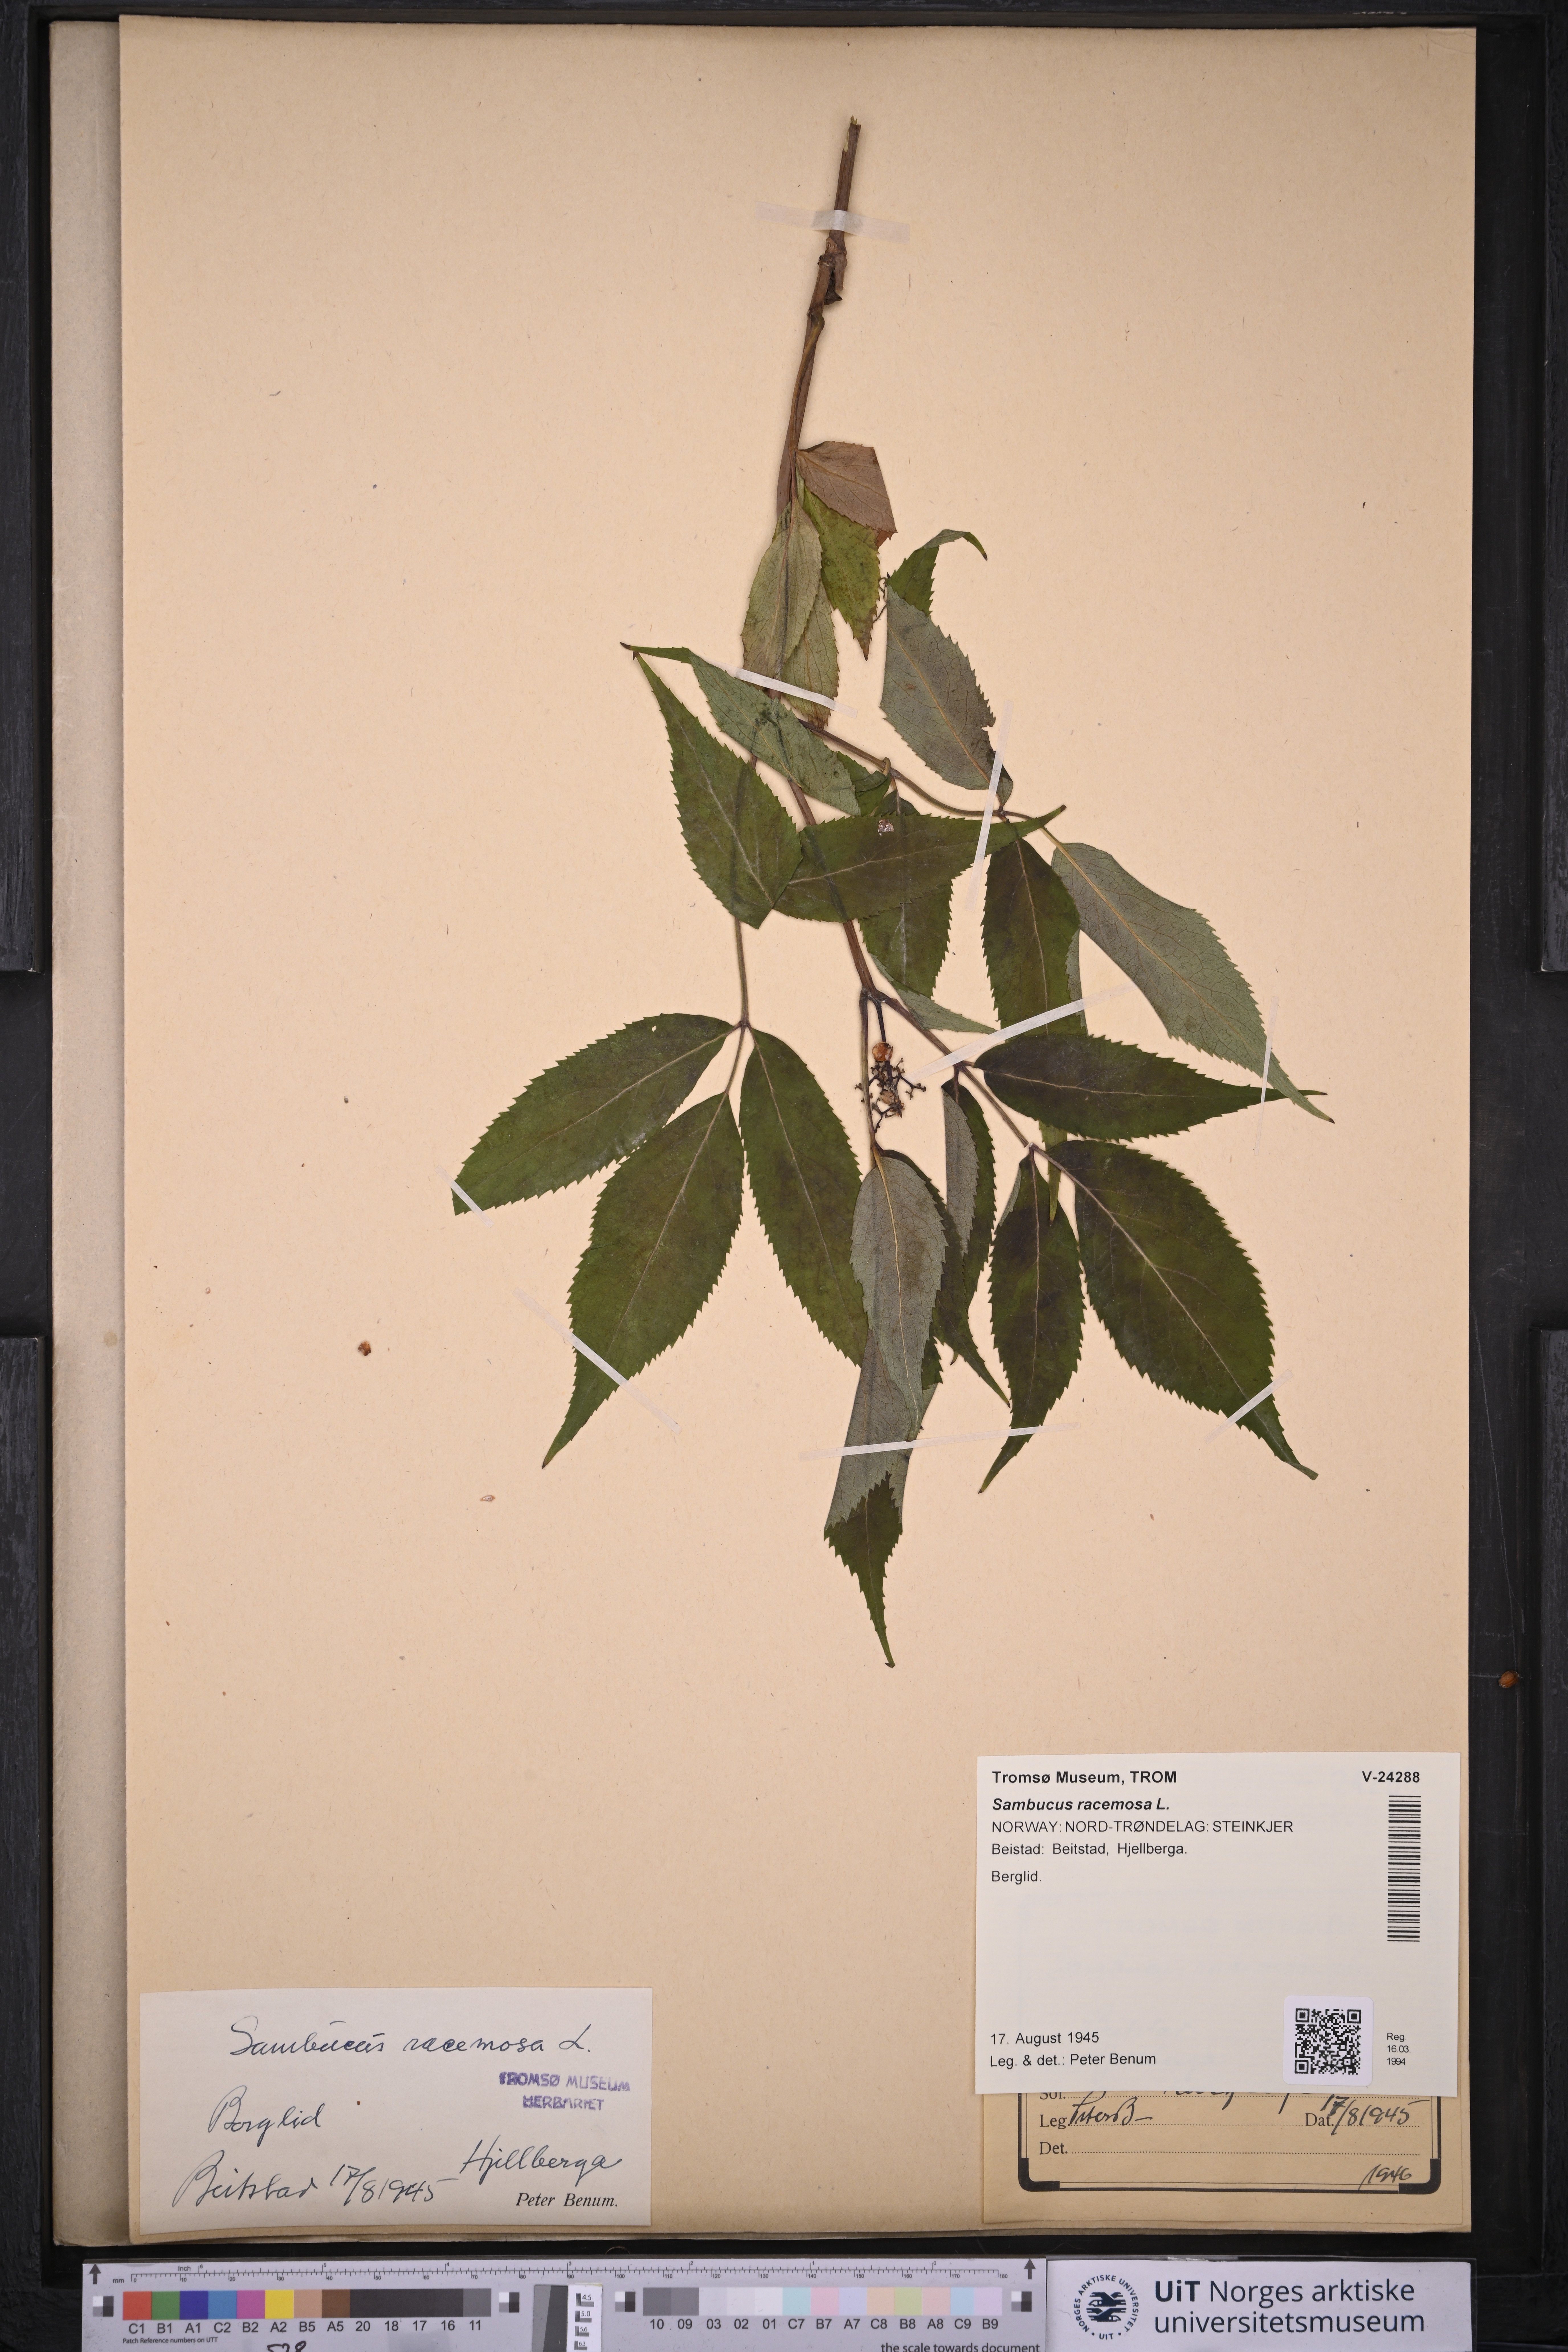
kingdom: Plantae
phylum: Tracheophyta
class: Magnoliopsida
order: Dipsacales
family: Viburnaceae
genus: Sambucus
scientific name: Sambucus racemosa
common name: Red-berried elder
